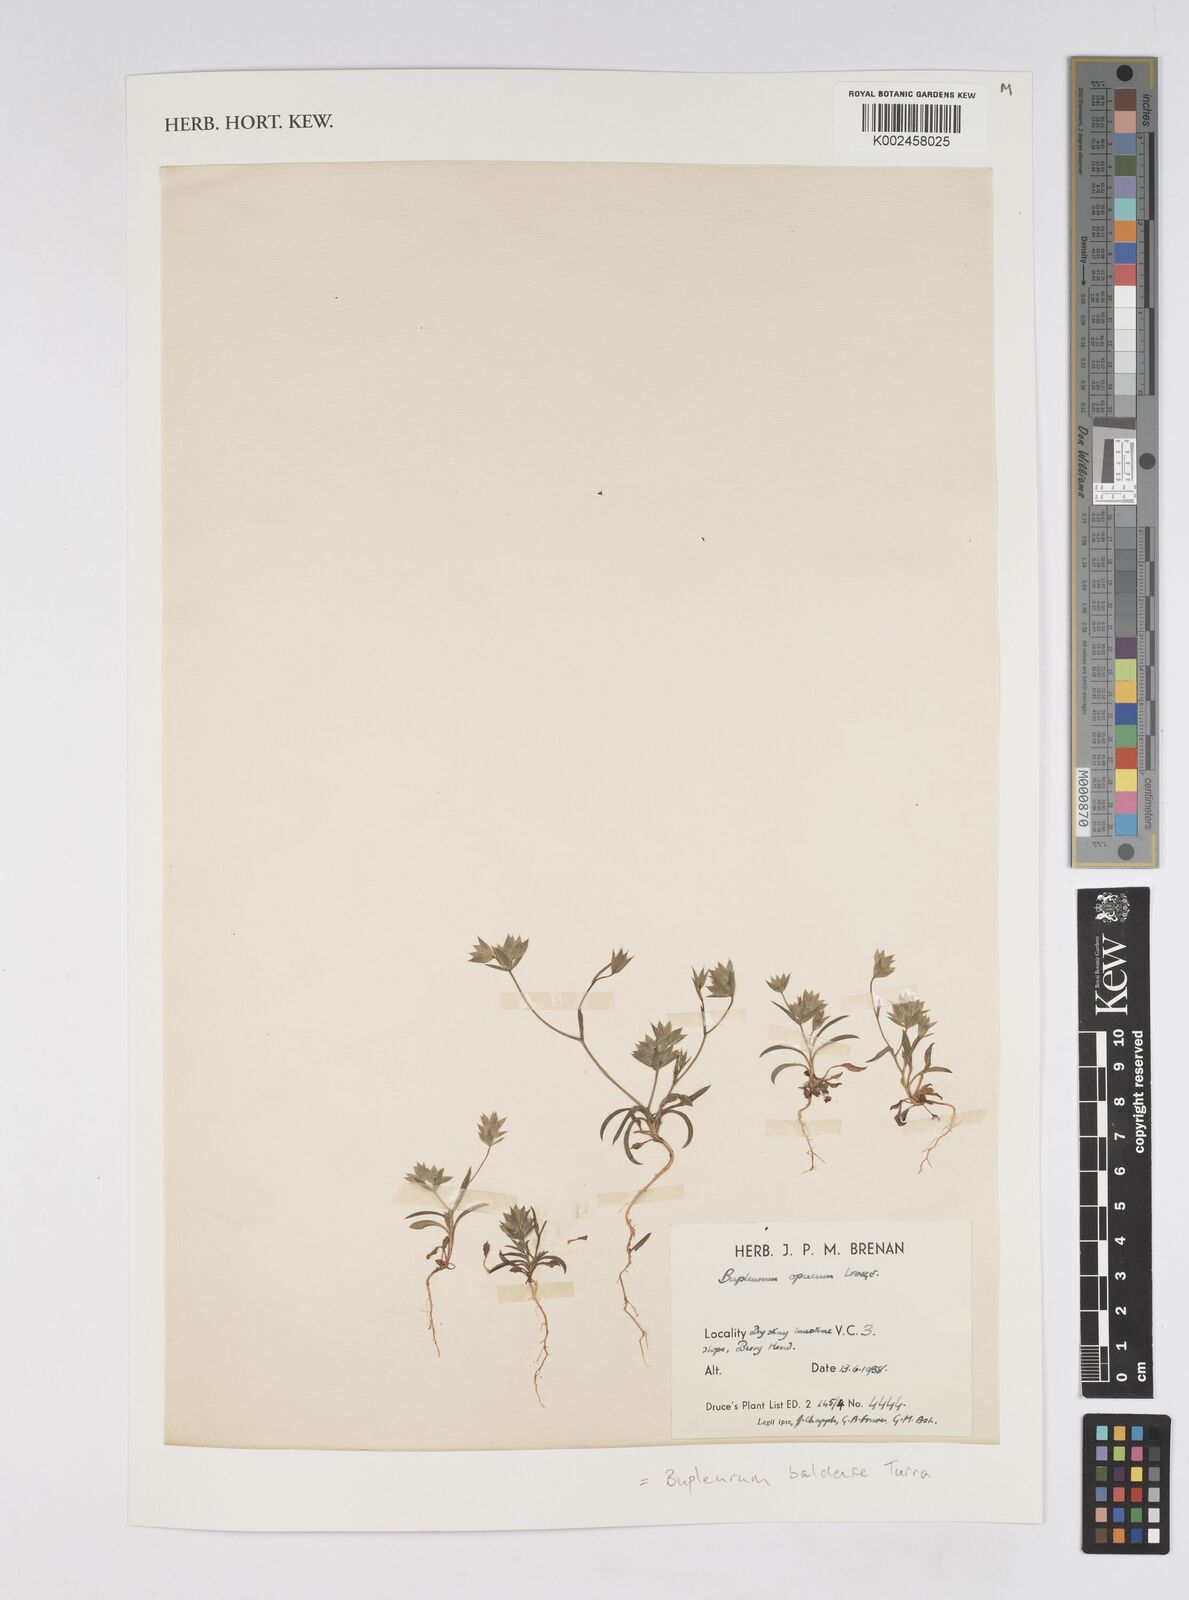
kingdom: Plantae
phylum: Tracheophyta
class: Magnoliopsida
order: Apiales
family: Apiaceae
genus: Bupleurum
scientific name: Bupleurum baldense
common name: Small hare's-ear
